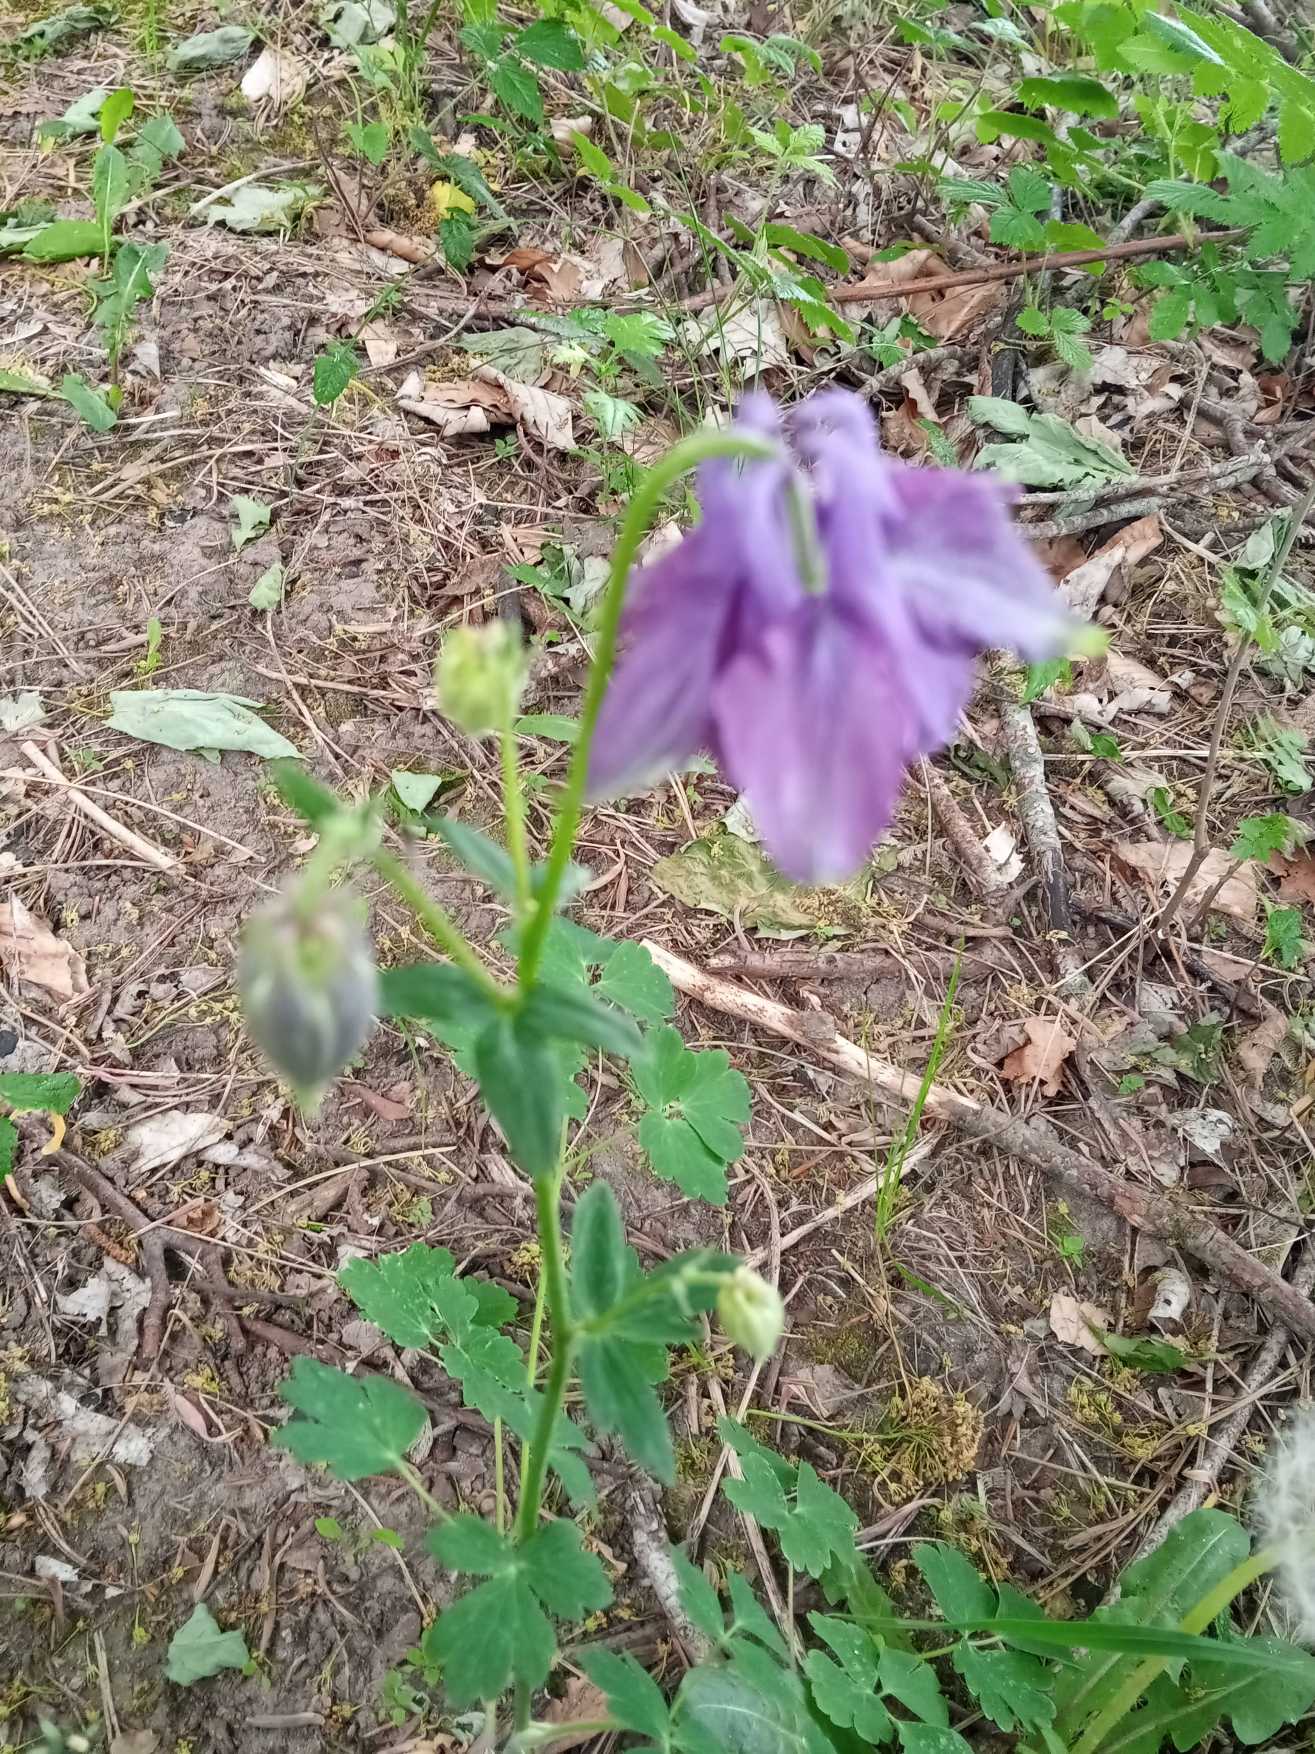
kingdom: Plantae
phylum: Tracheophyta
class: Magnoliopsida
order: Ranunculales
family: Ranunculaceae
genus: Aquilegia
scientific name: Aquilegia vulgaris
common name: Akeleje
